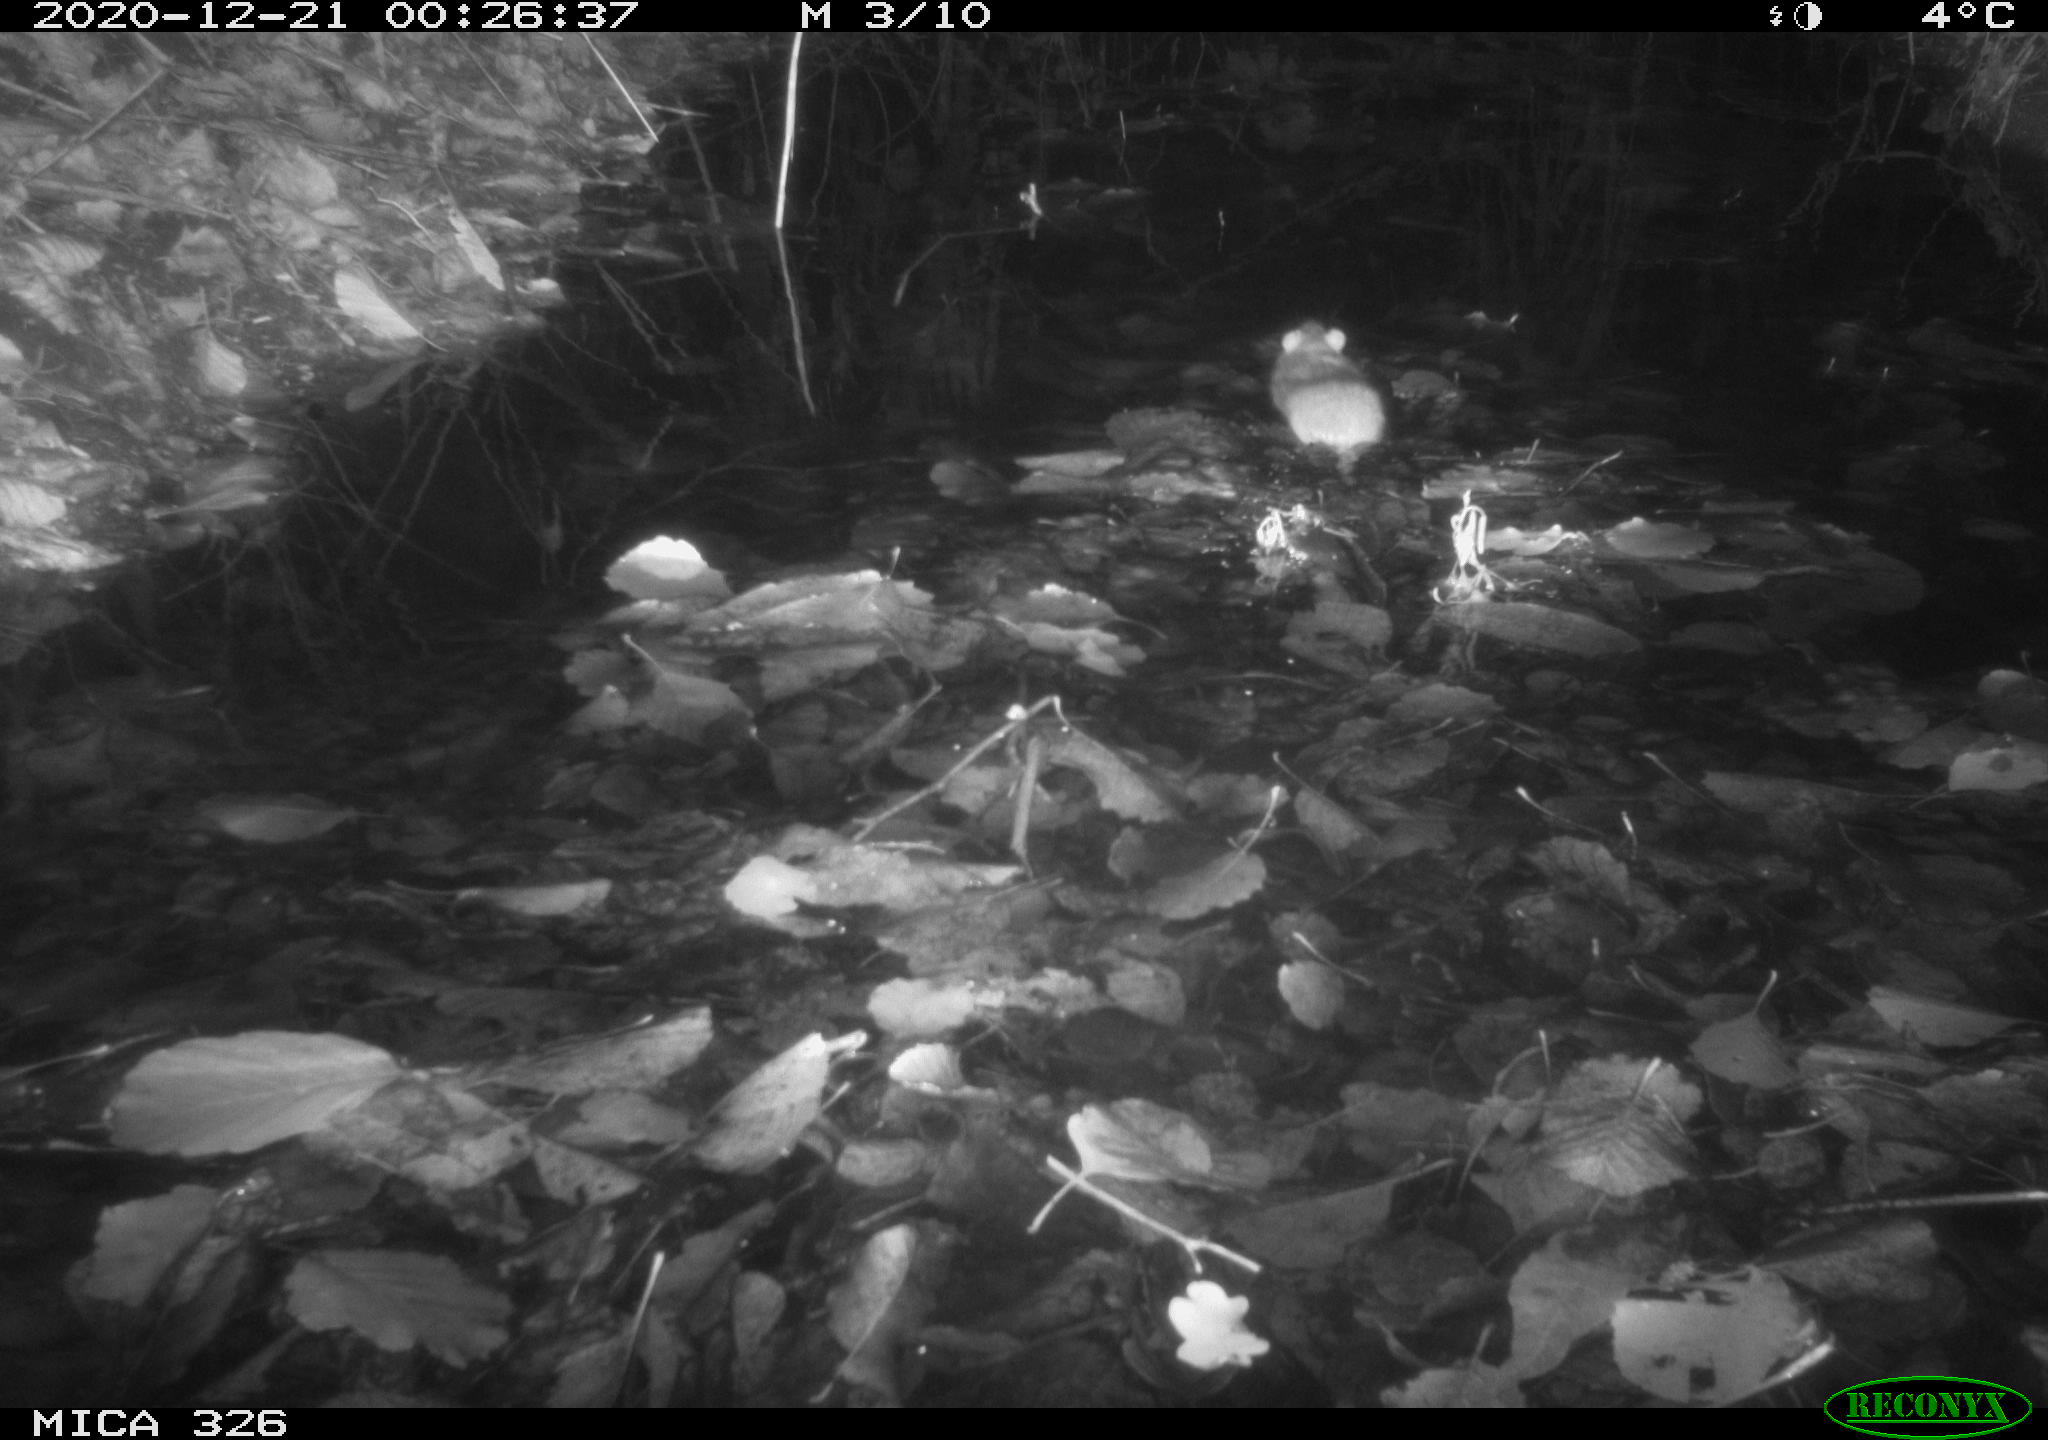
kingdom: Animalia
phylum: Chordata
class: Mammalia
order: Rodentia
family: Muridae
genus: Rattus
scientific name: Rattus norvegicus
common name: Brown rat
